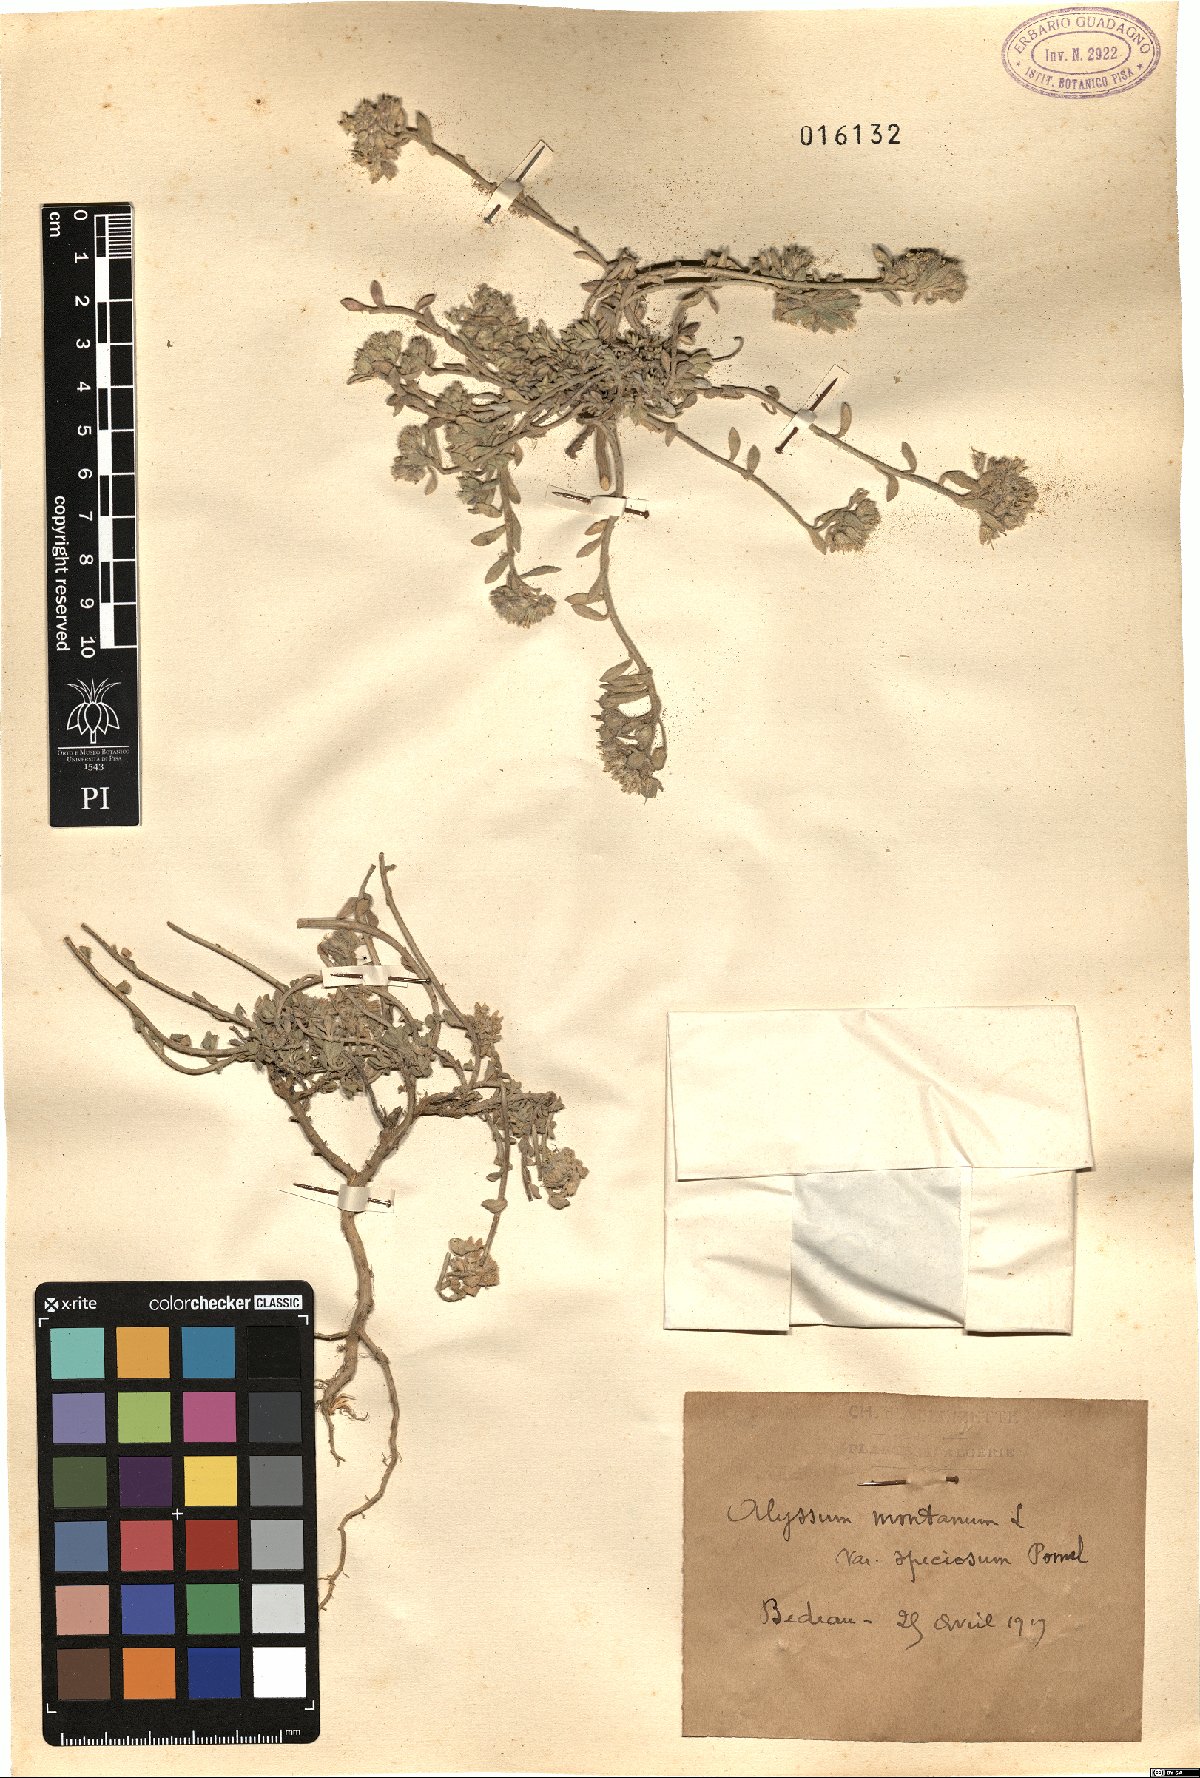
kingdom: Plantae
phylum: Tracheophyta
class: Magnoliopsida
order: Brassicales
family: Brassicaceae
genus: Alyssum
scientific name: Alyssum speciosum
